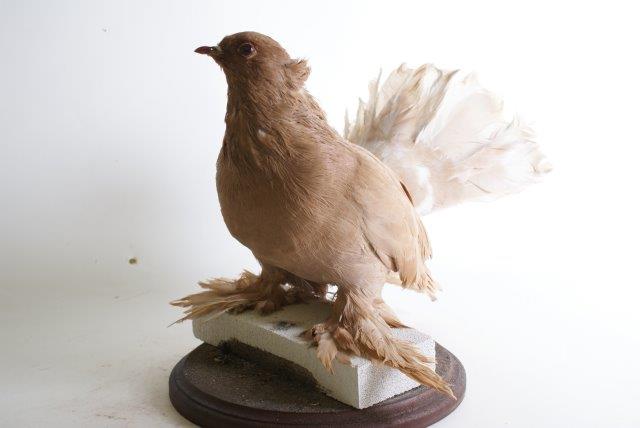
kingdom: Animalia
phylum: Chordata
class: Aves
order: Columbiformes
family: Columbidae
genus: Columba
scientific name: Columba livia
